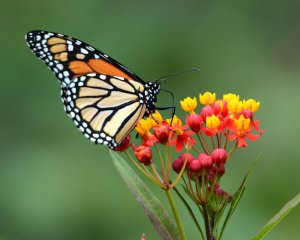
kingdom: Animalia
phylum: Arthropoda
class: Insecta
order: Lepidoptera
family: Nymphalidae
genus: Danaus
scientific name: Danaus plexippus
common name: Monarch
